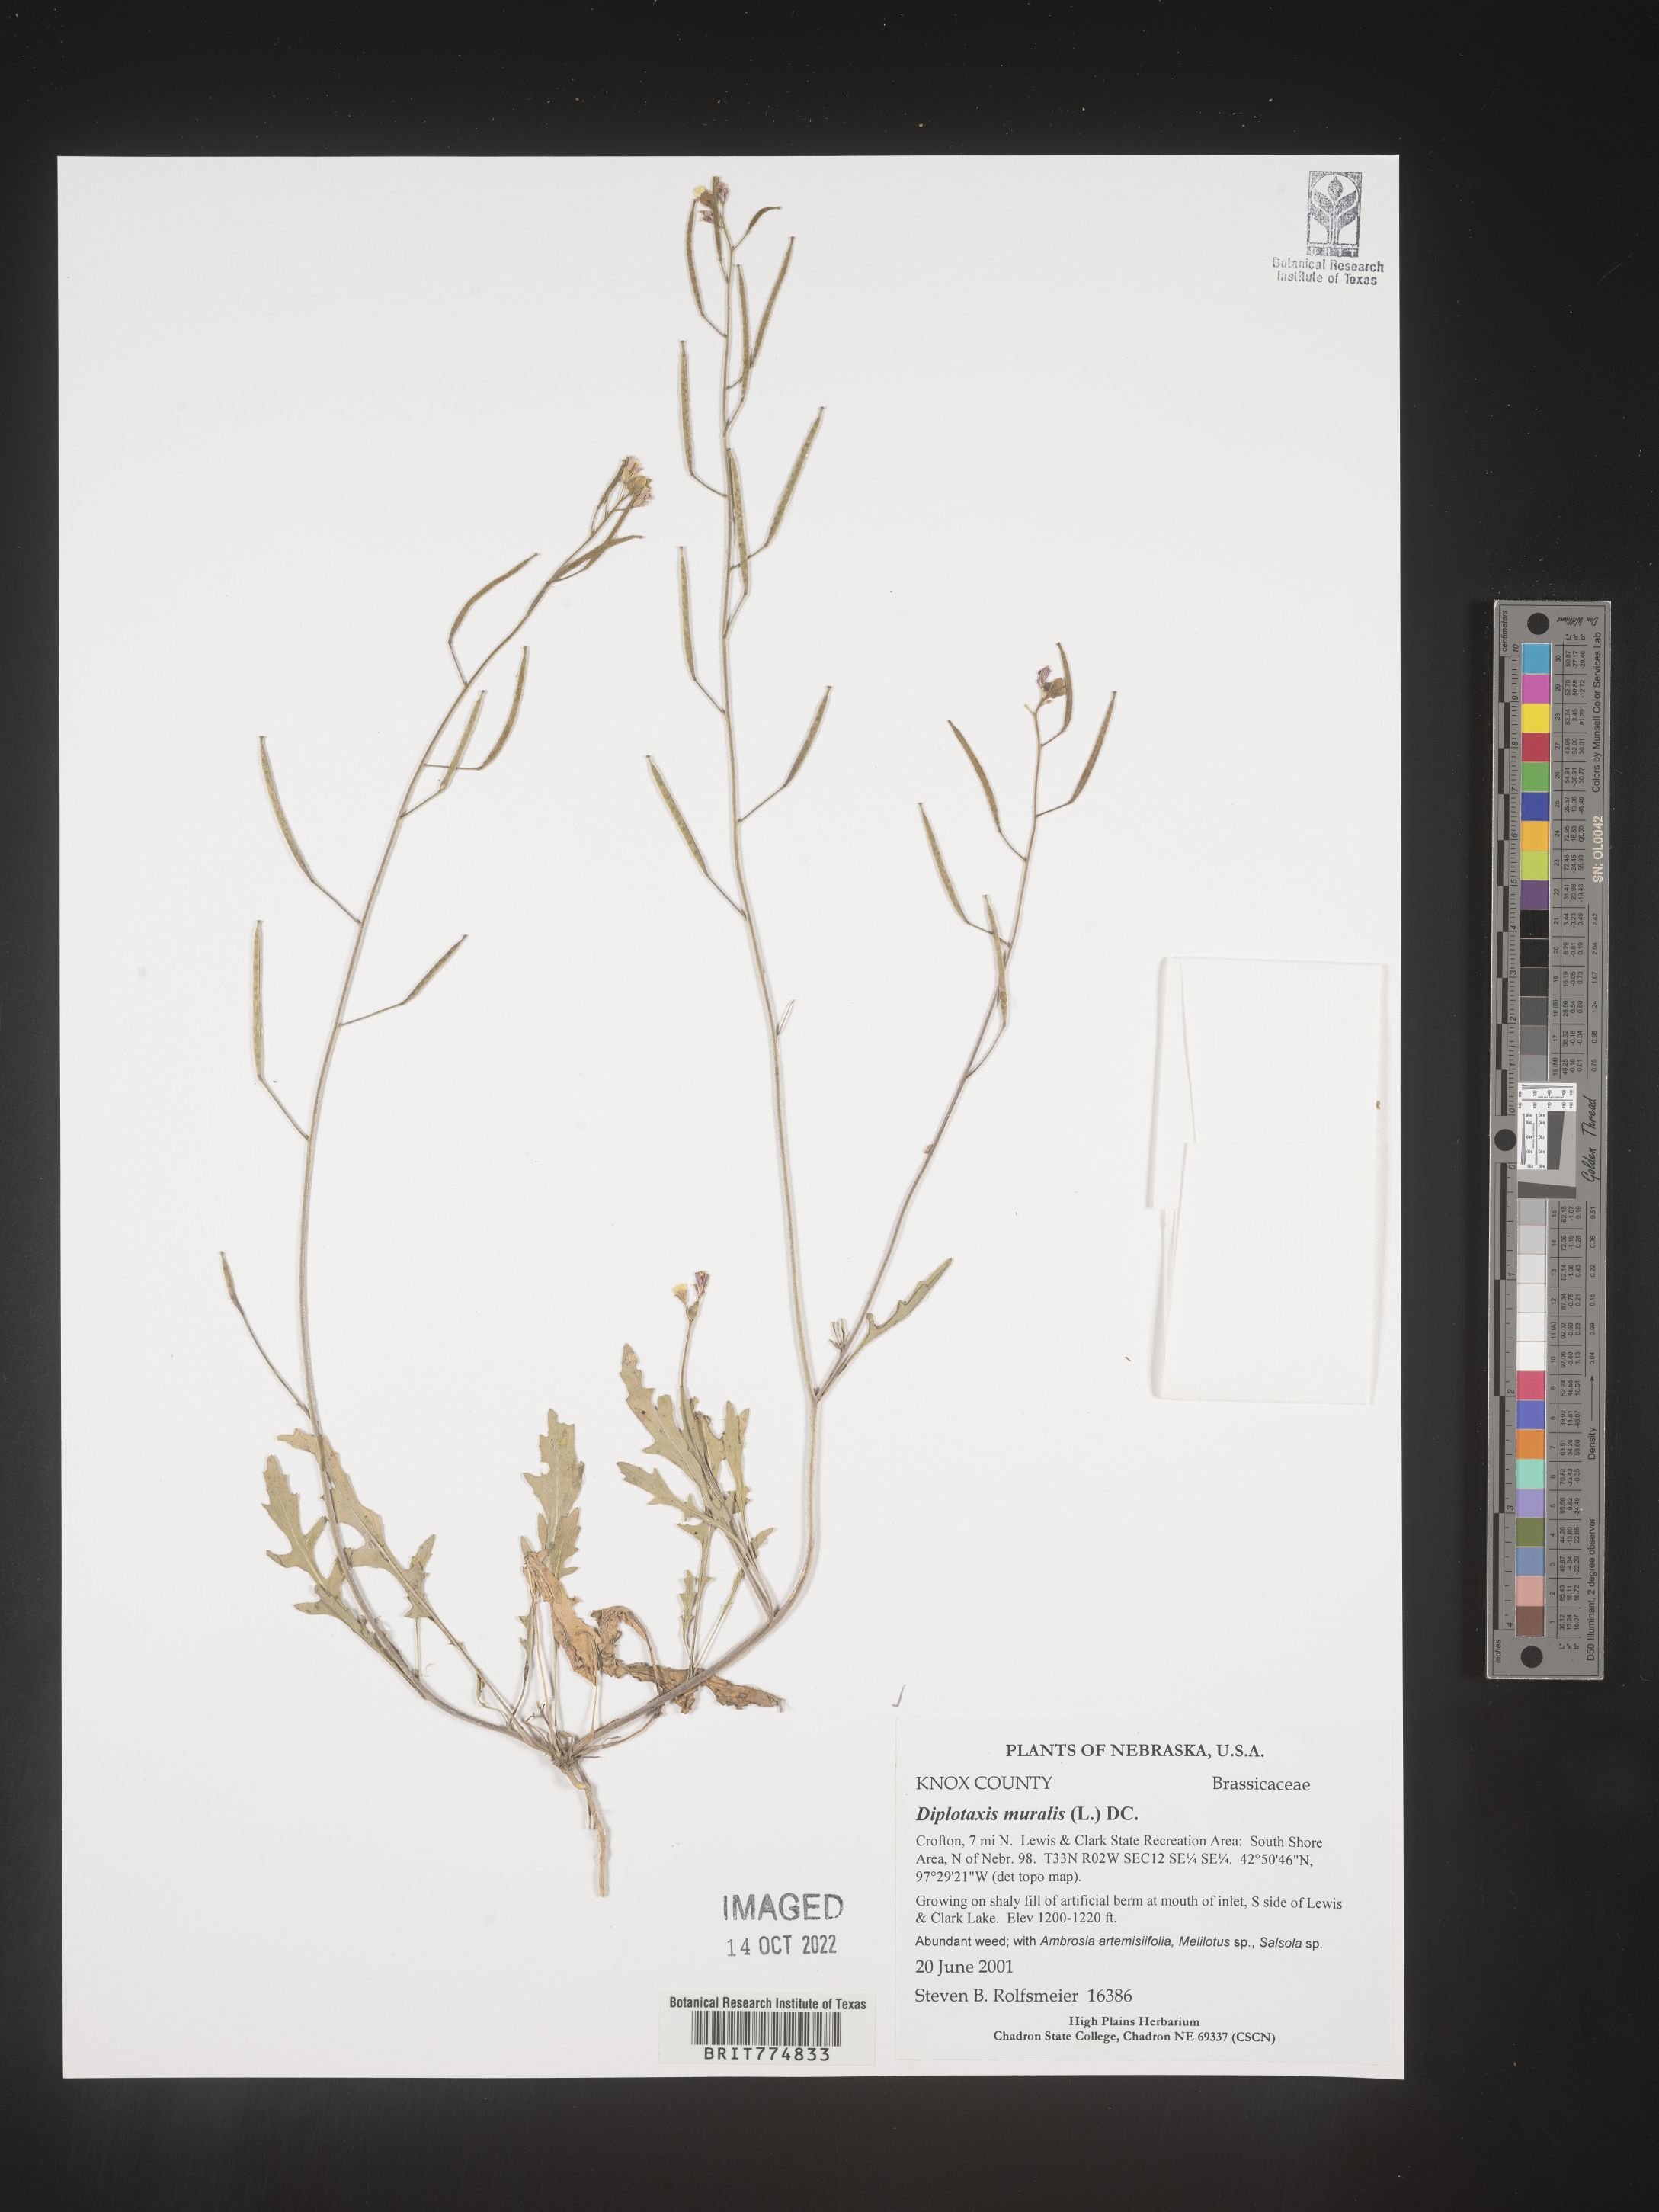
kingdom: Plantae
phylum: Tracheophyta
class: Magnoliopsida
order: Brassicales
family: Brassicaceae
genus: Diplotaxis
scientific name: Diplotaxis
